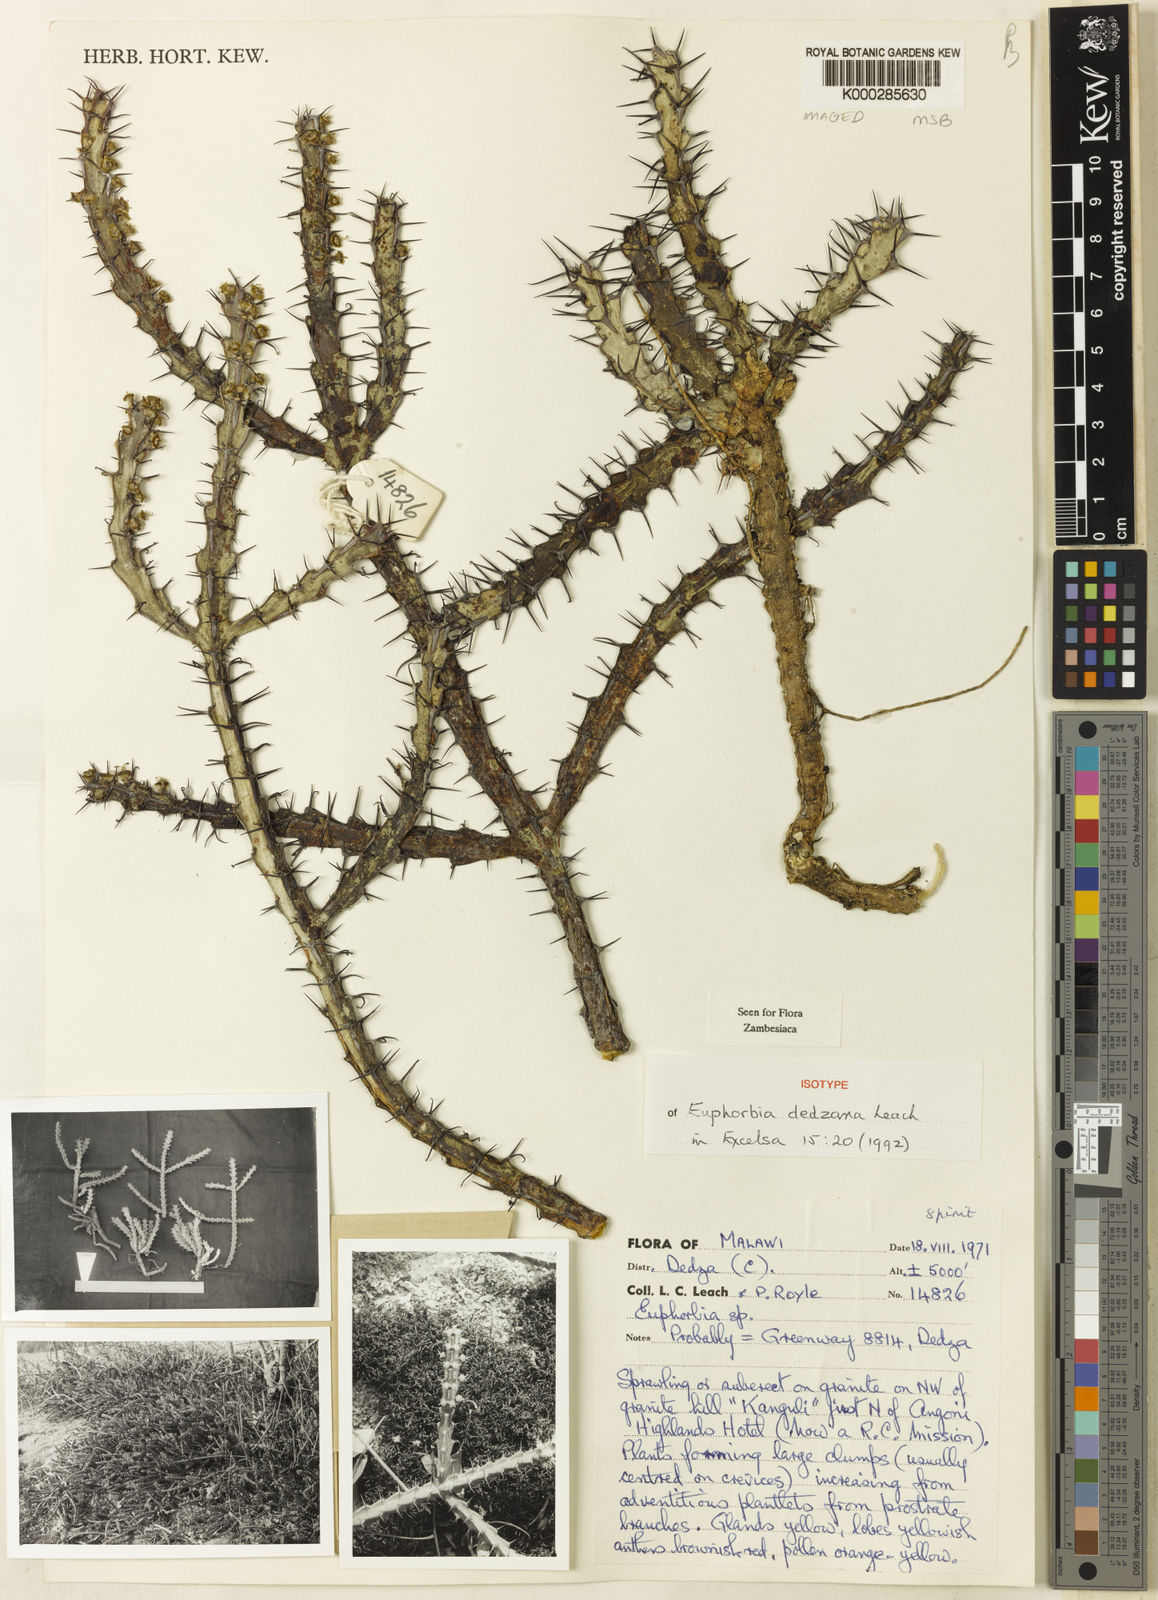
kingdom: Plantae
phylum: Tracheophyta
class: Magnoliopsida
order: Malpighiales
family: Euphorbiaceae
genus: Euphorbia
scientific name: Euphorbia dedzana
